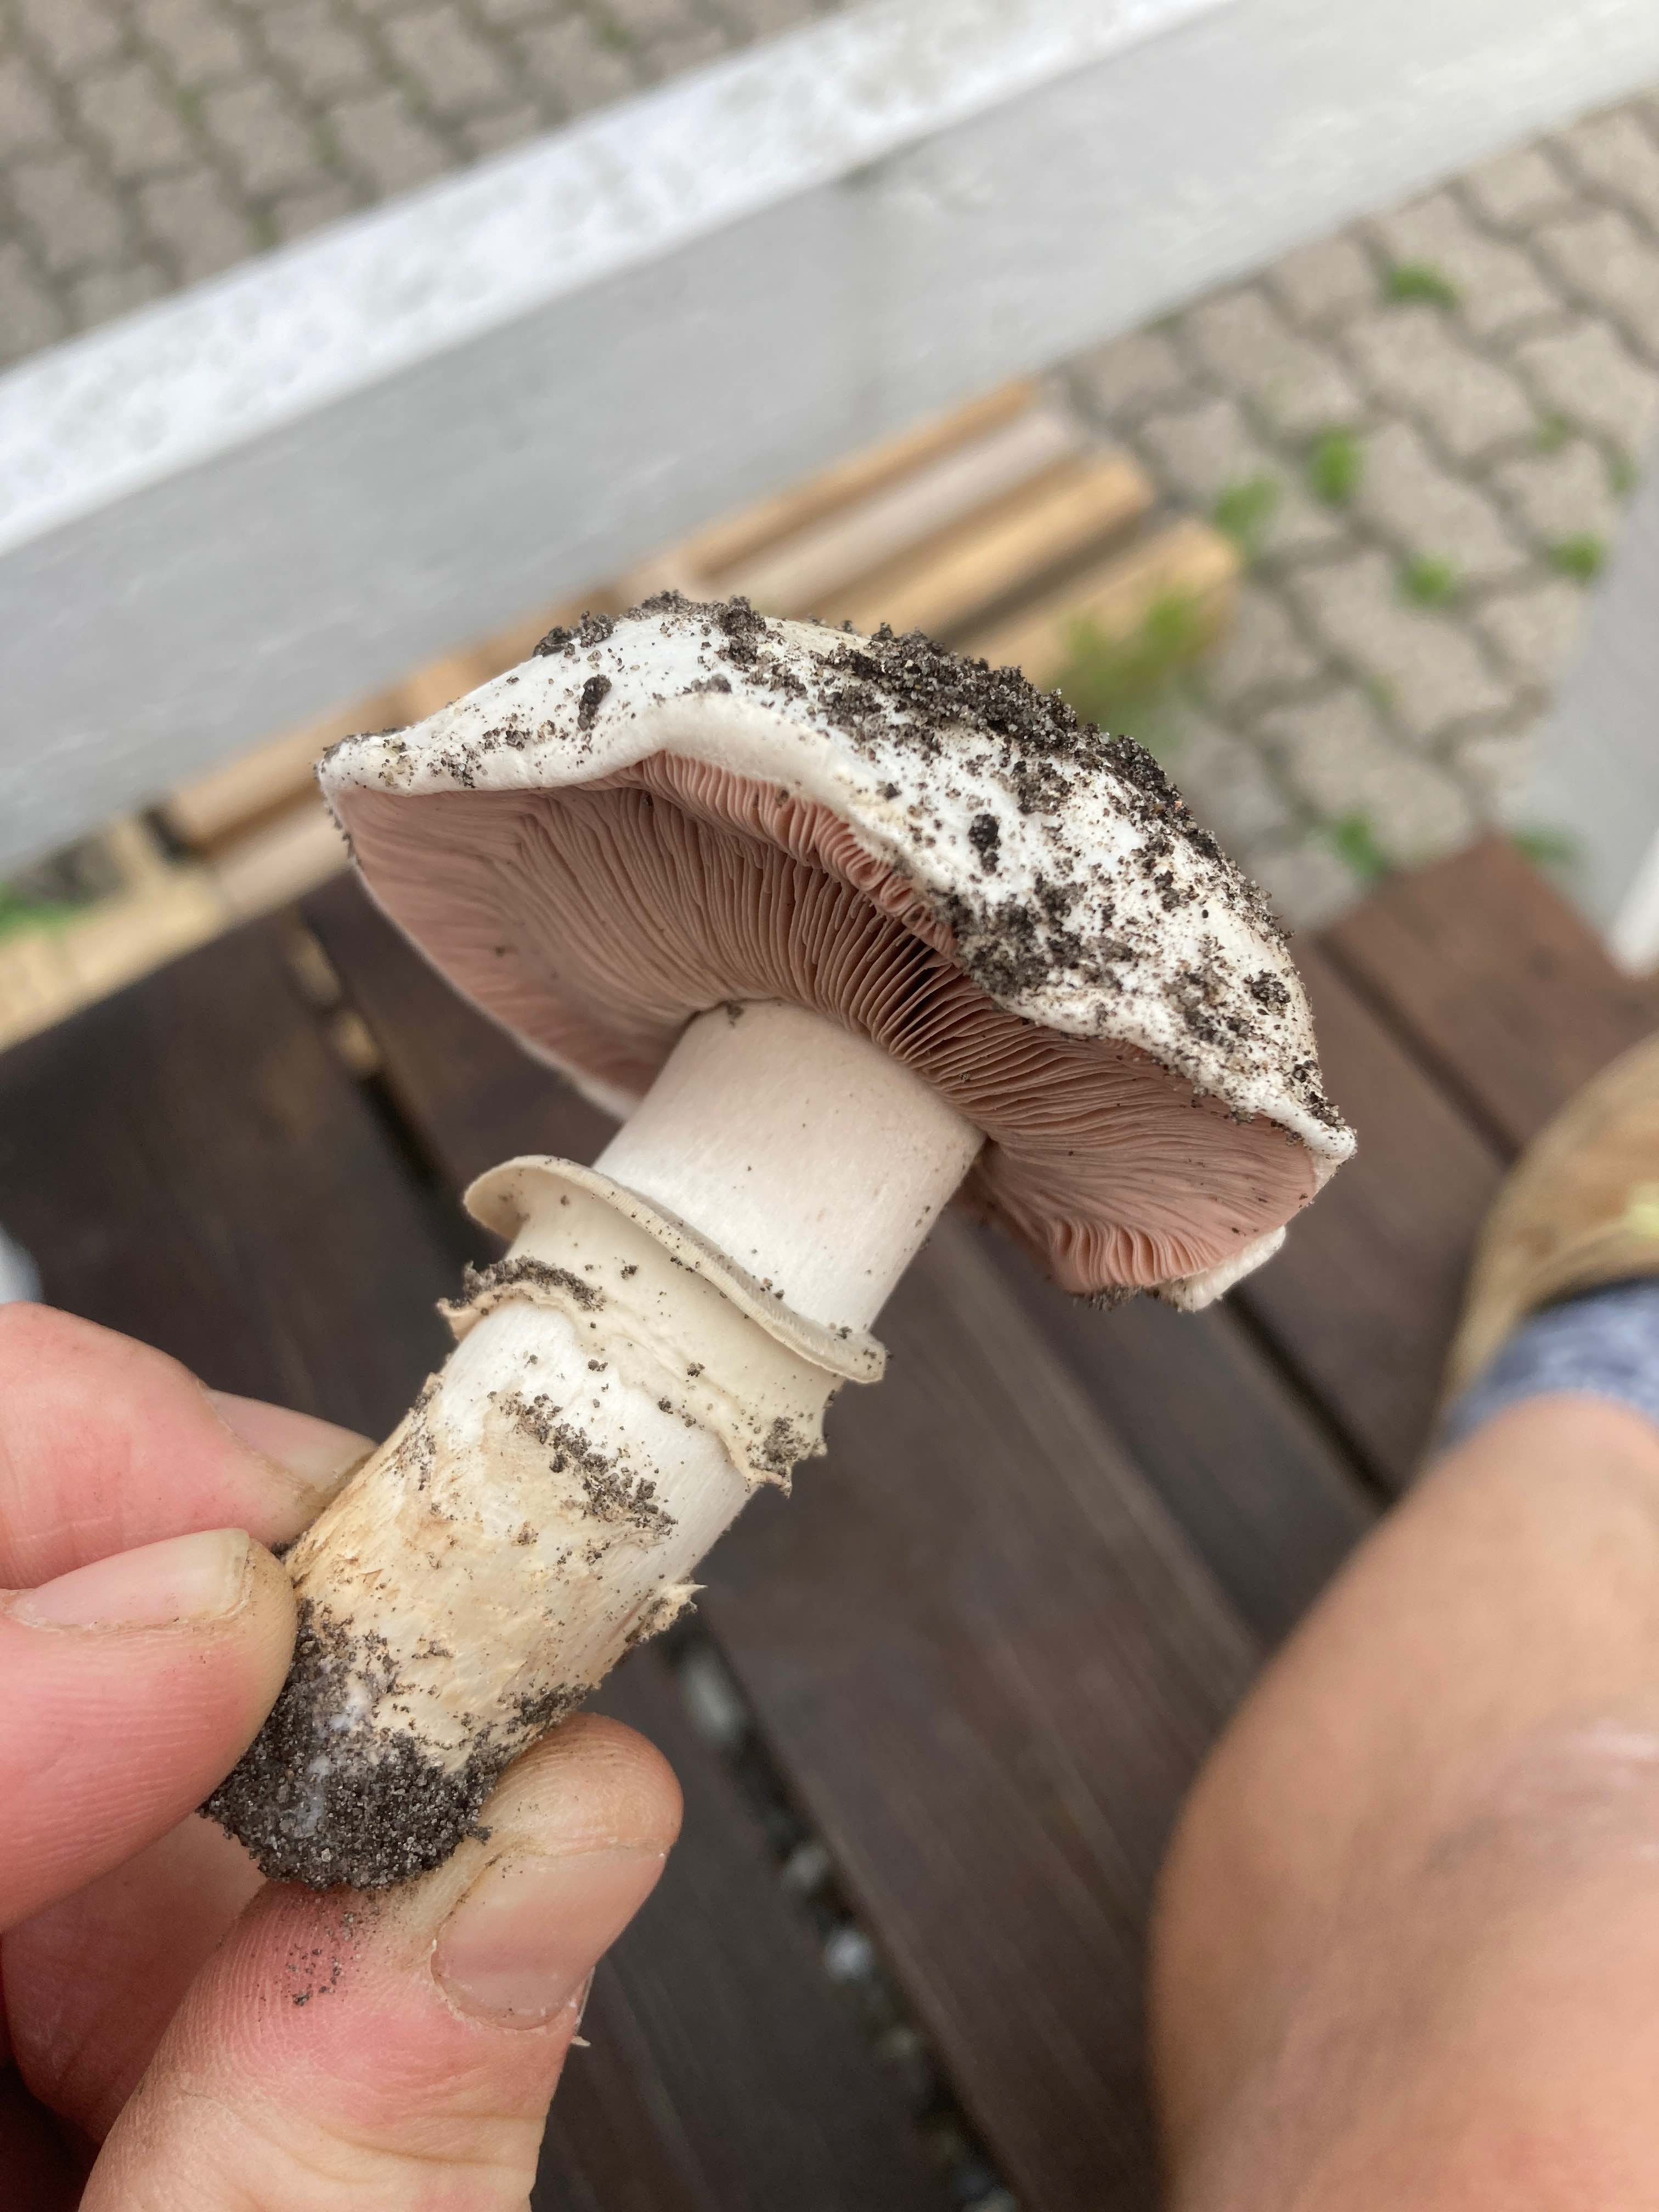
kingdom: Fungi
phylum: Basidiomycota
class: Agaricomycetes
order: Agaricales
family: Agaricaceae
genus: Agaricus
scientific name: Agaricus bitorquis
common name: vej-champignon
